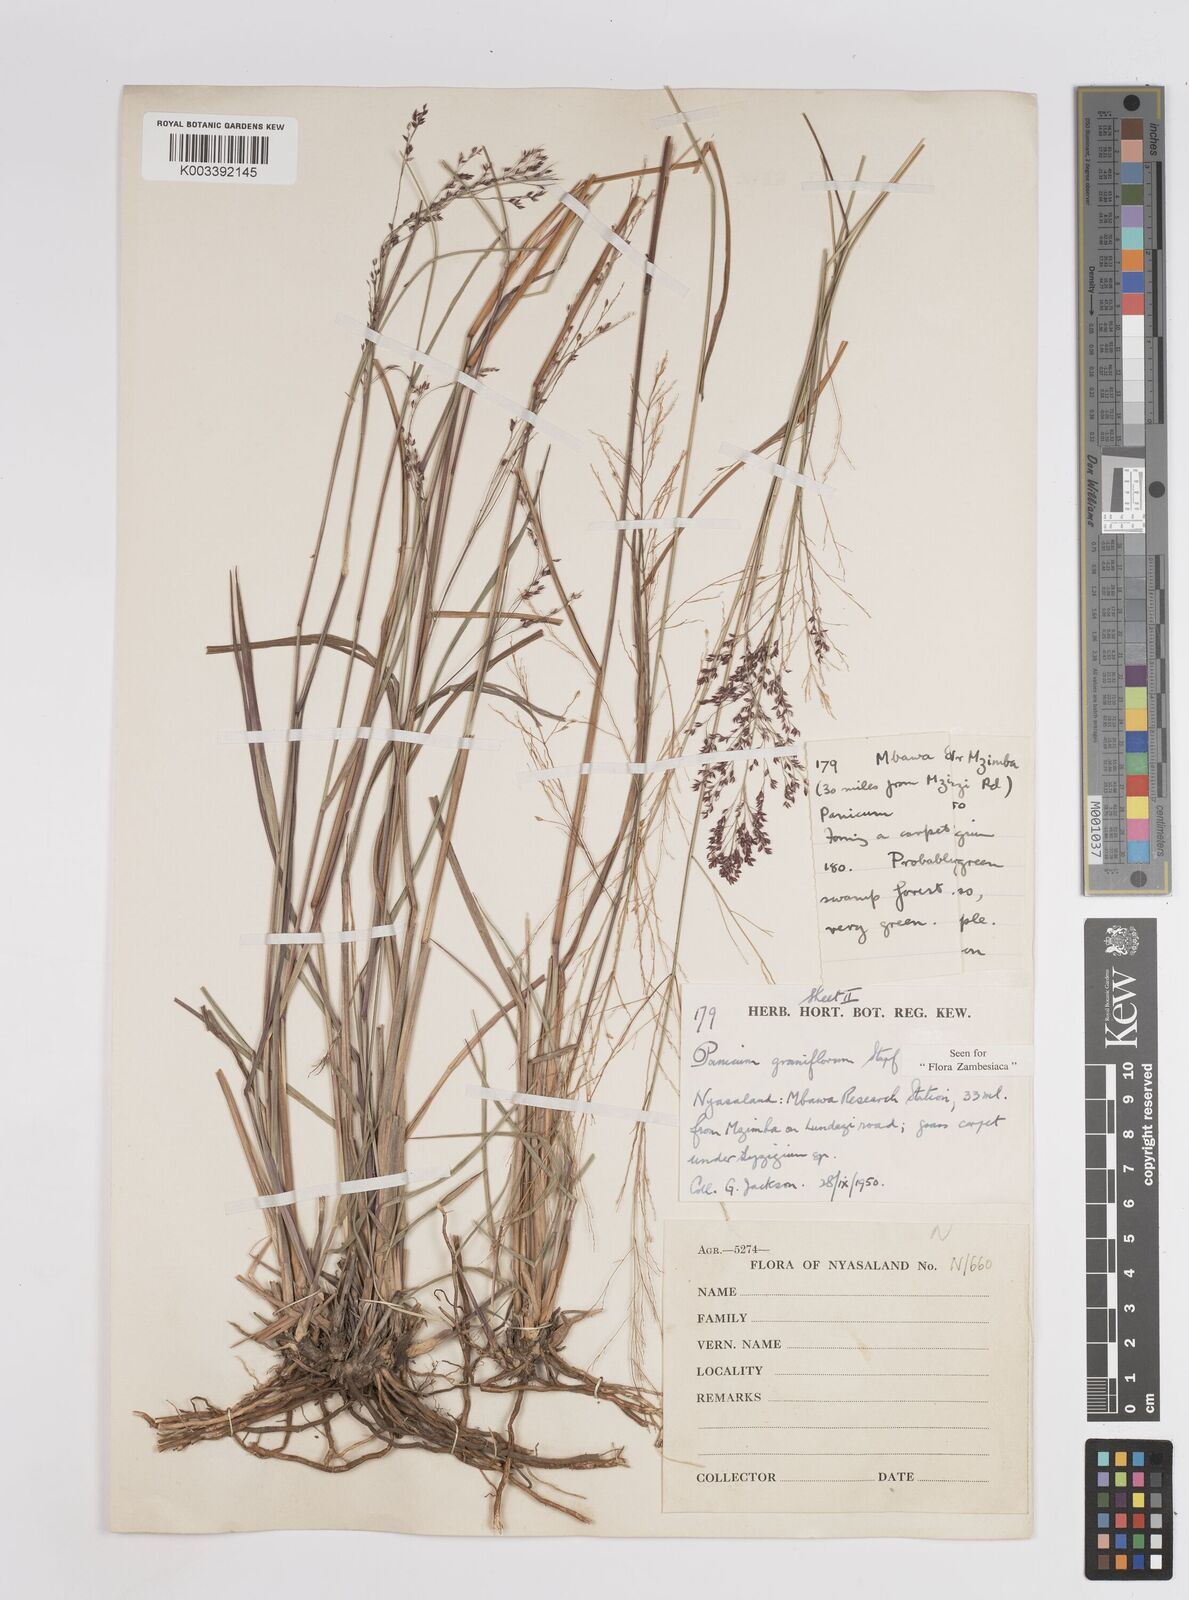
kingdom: Plantae
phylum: Tracheophyta
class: Liliopsida
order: Poales
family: Poaceae
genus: Panicum
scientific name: Panicum graniflorum
